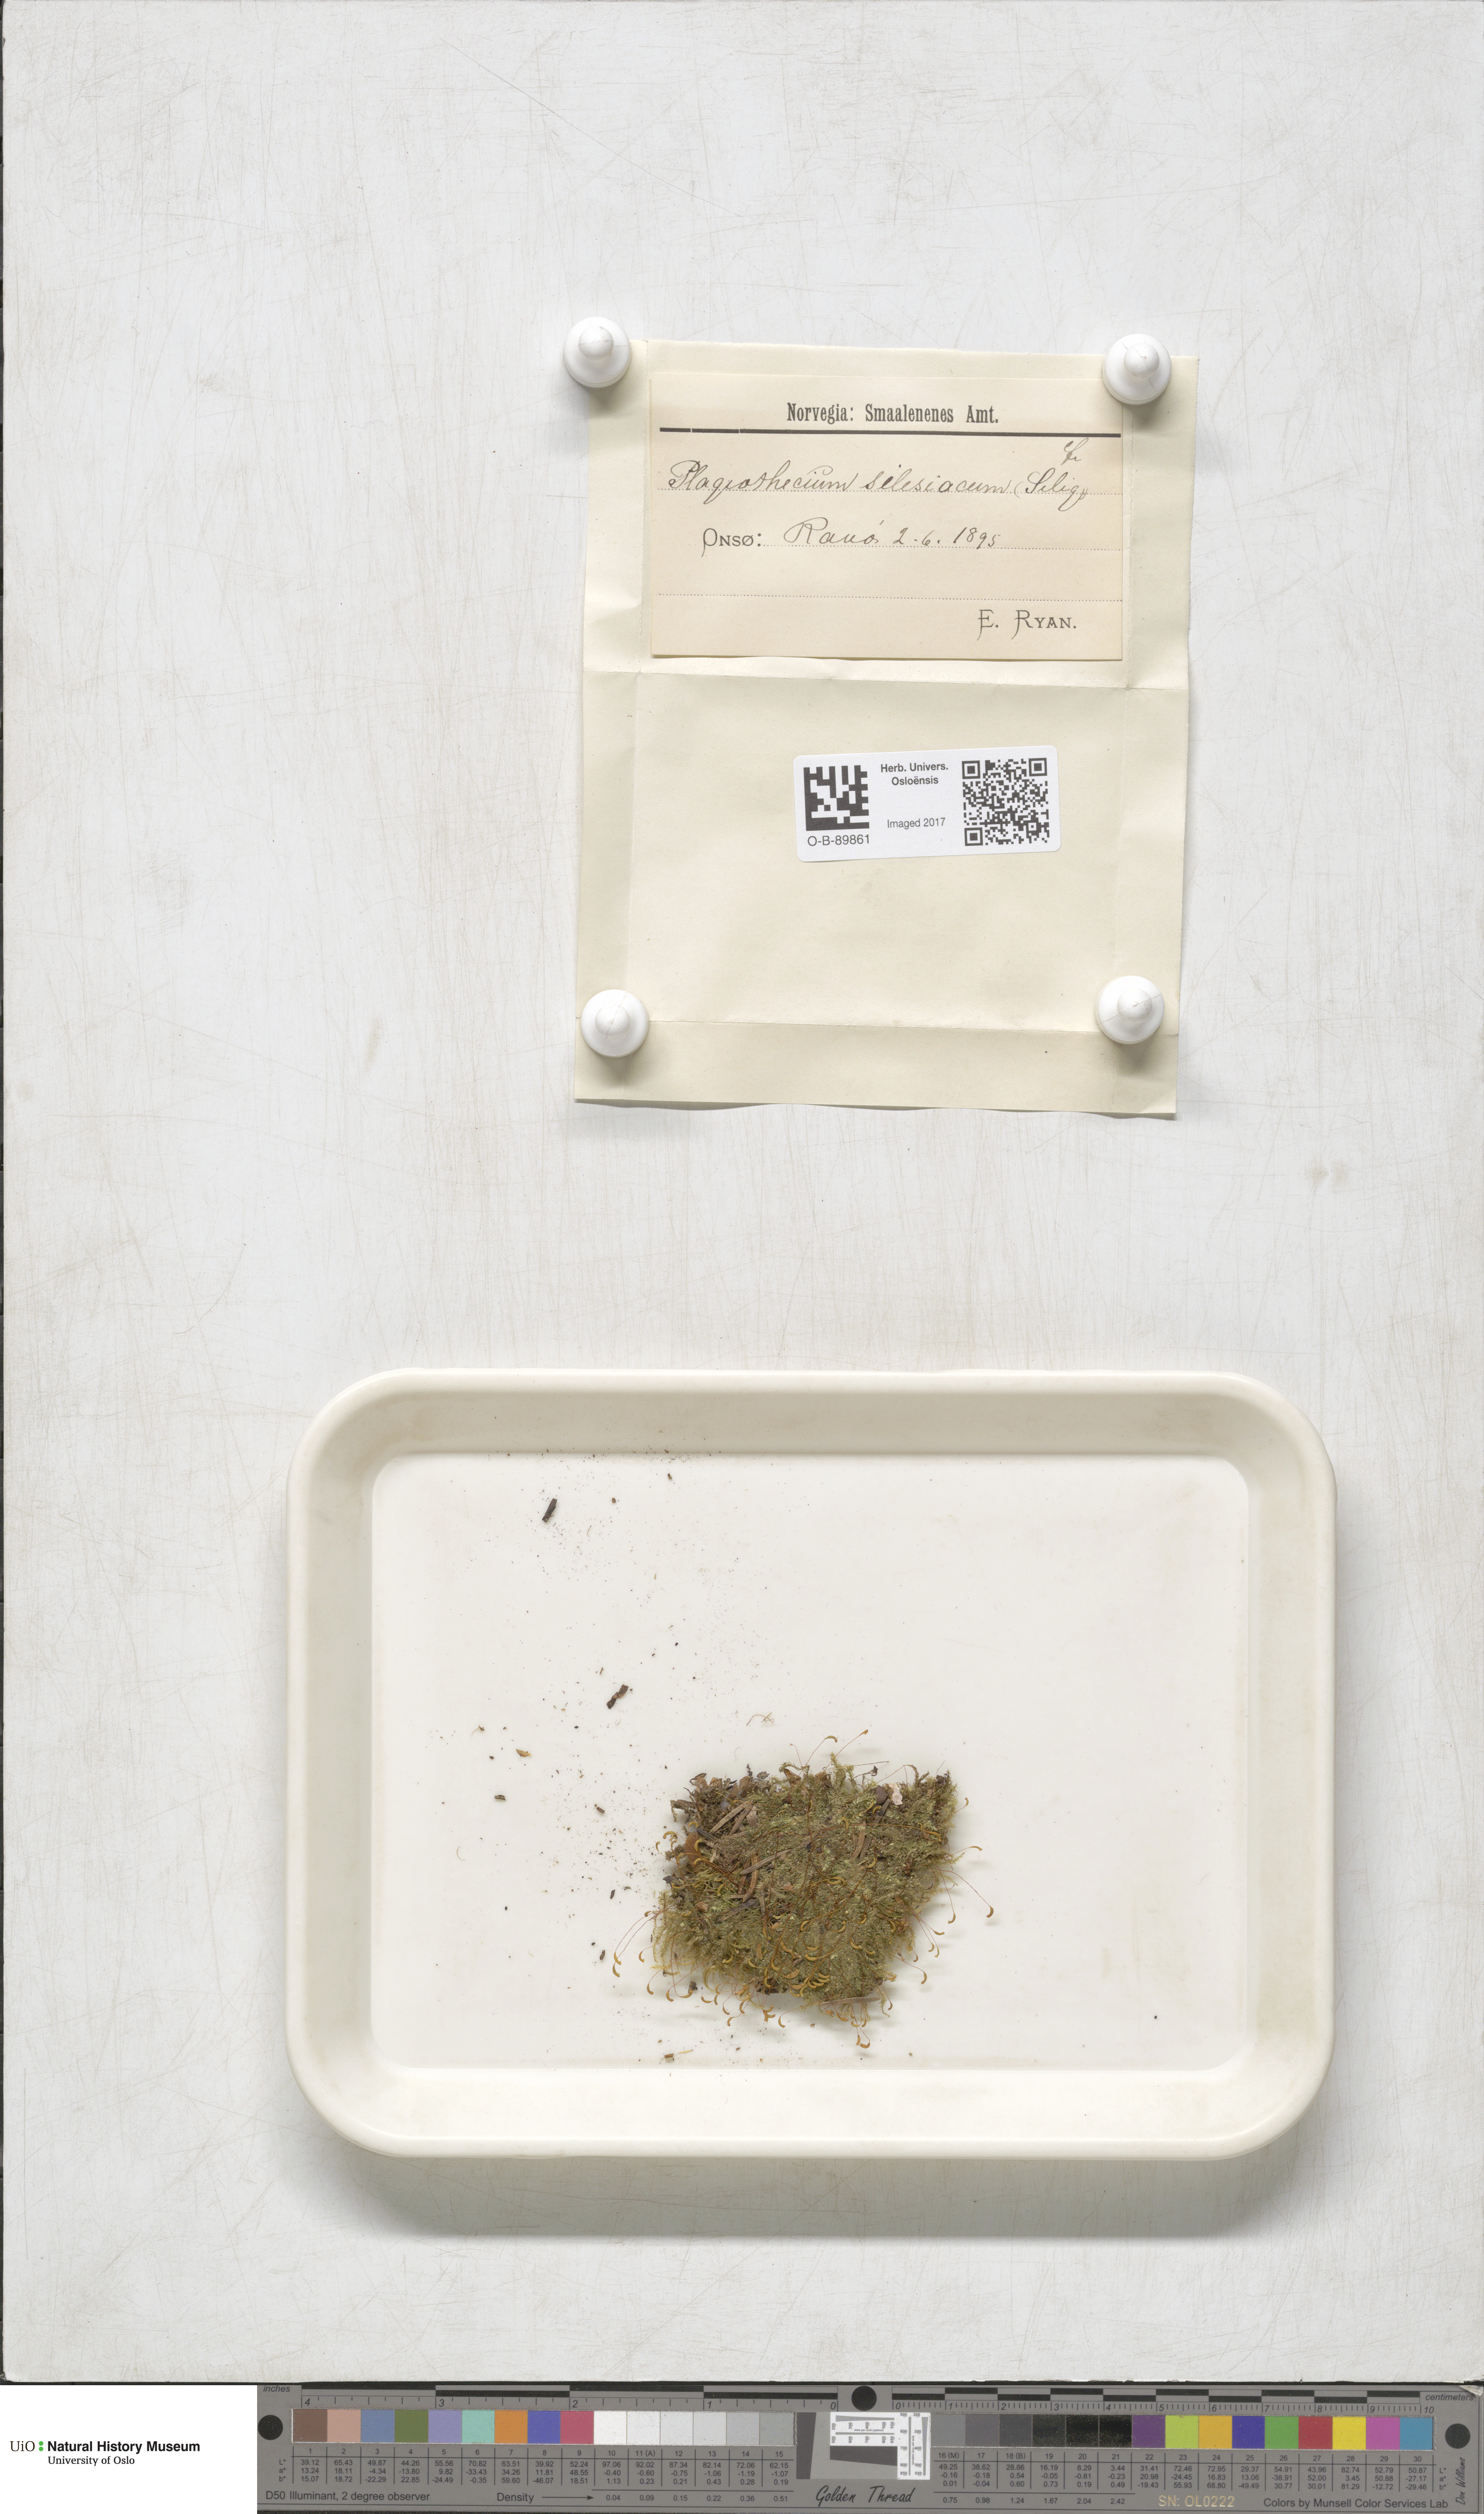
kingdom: Plantae
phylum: Bryophyta
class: Bryopsida
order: Hypnales
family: Plagiotheciaceae
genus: Herzogiella
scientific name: Herzogiella seligeri
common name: Silesian feather-moss
